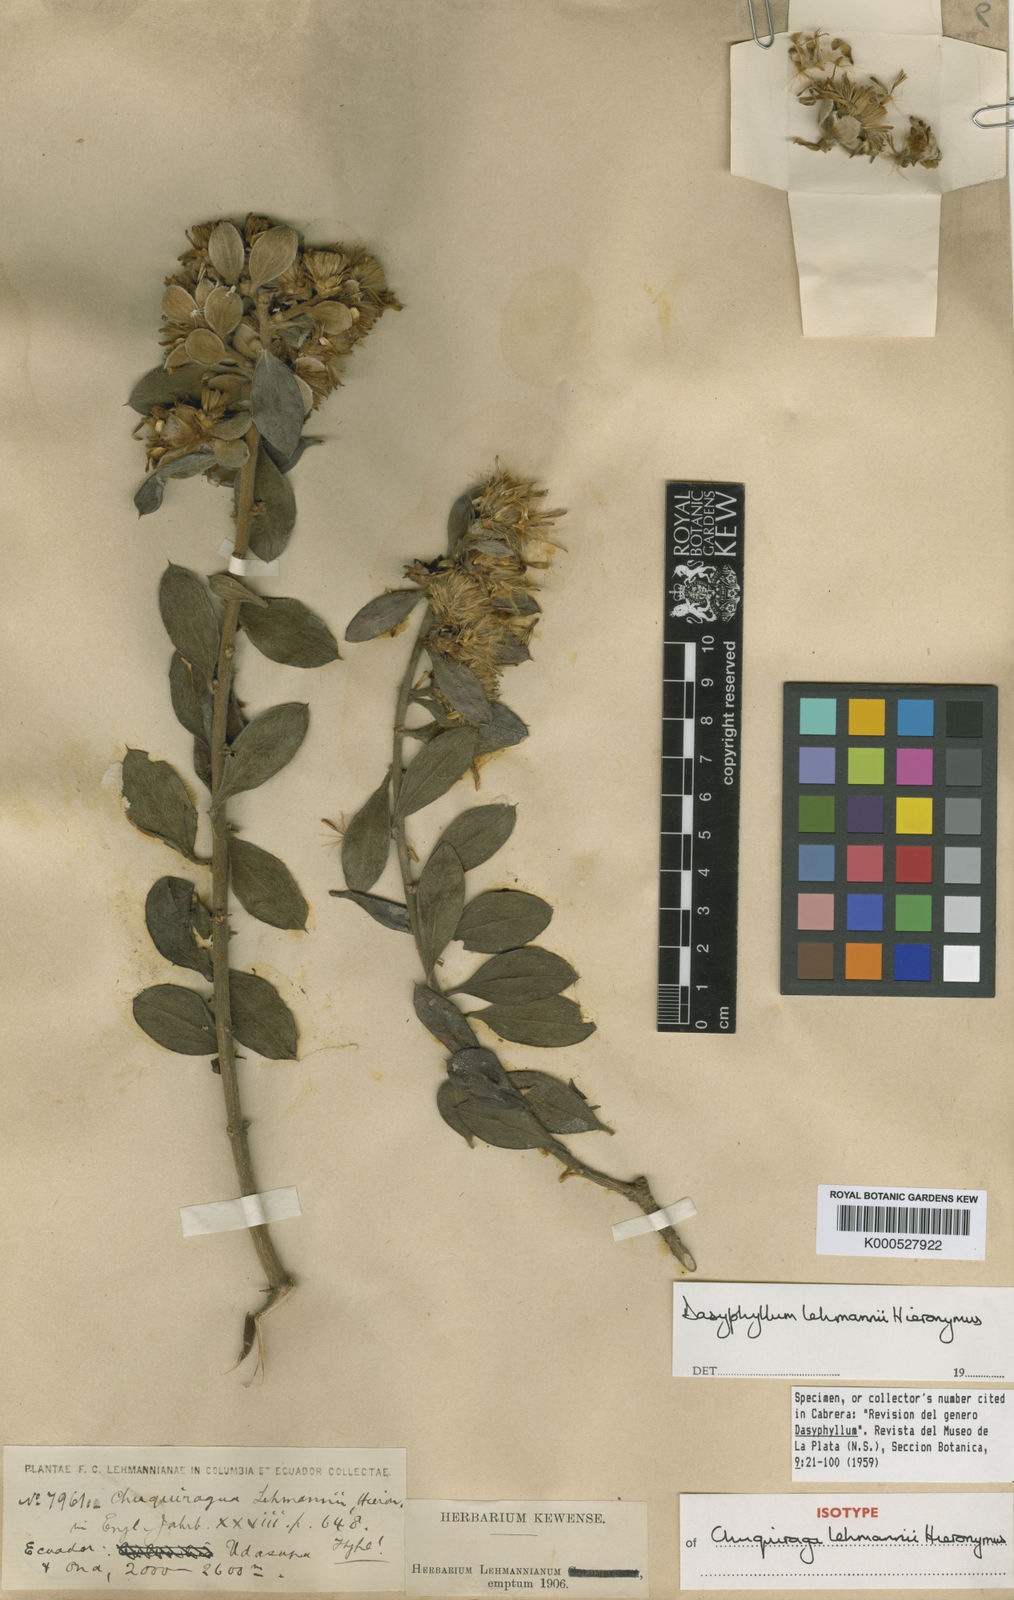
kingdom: Plantae
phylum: Tracheophyta
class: Magnoliopsida
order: Asterales
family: Asteraceae
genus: Dasyphyllum
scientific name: Dasyphyllum lehmannii
